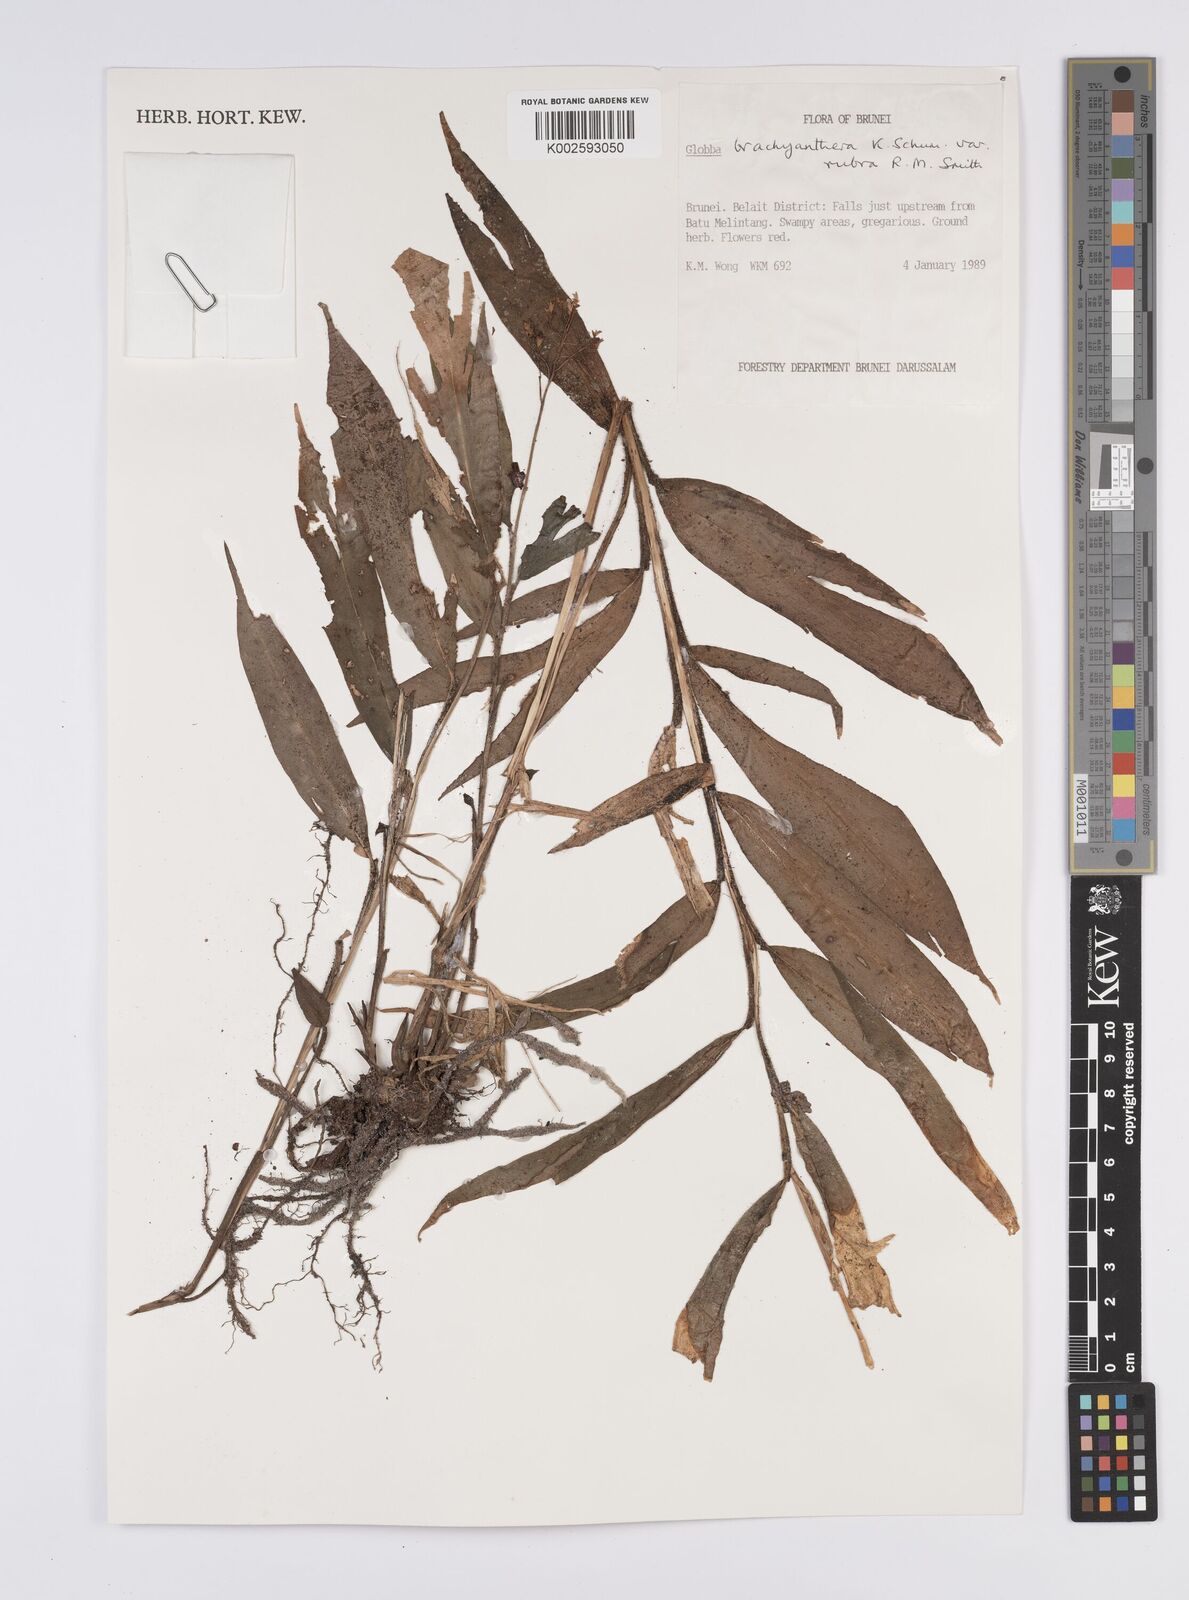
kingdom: Plantae
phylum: Tracheophyta
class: Liliopsida
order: Zingiberales
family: Zingiberaceae
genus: Globba
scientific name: Globba brachyanthera
